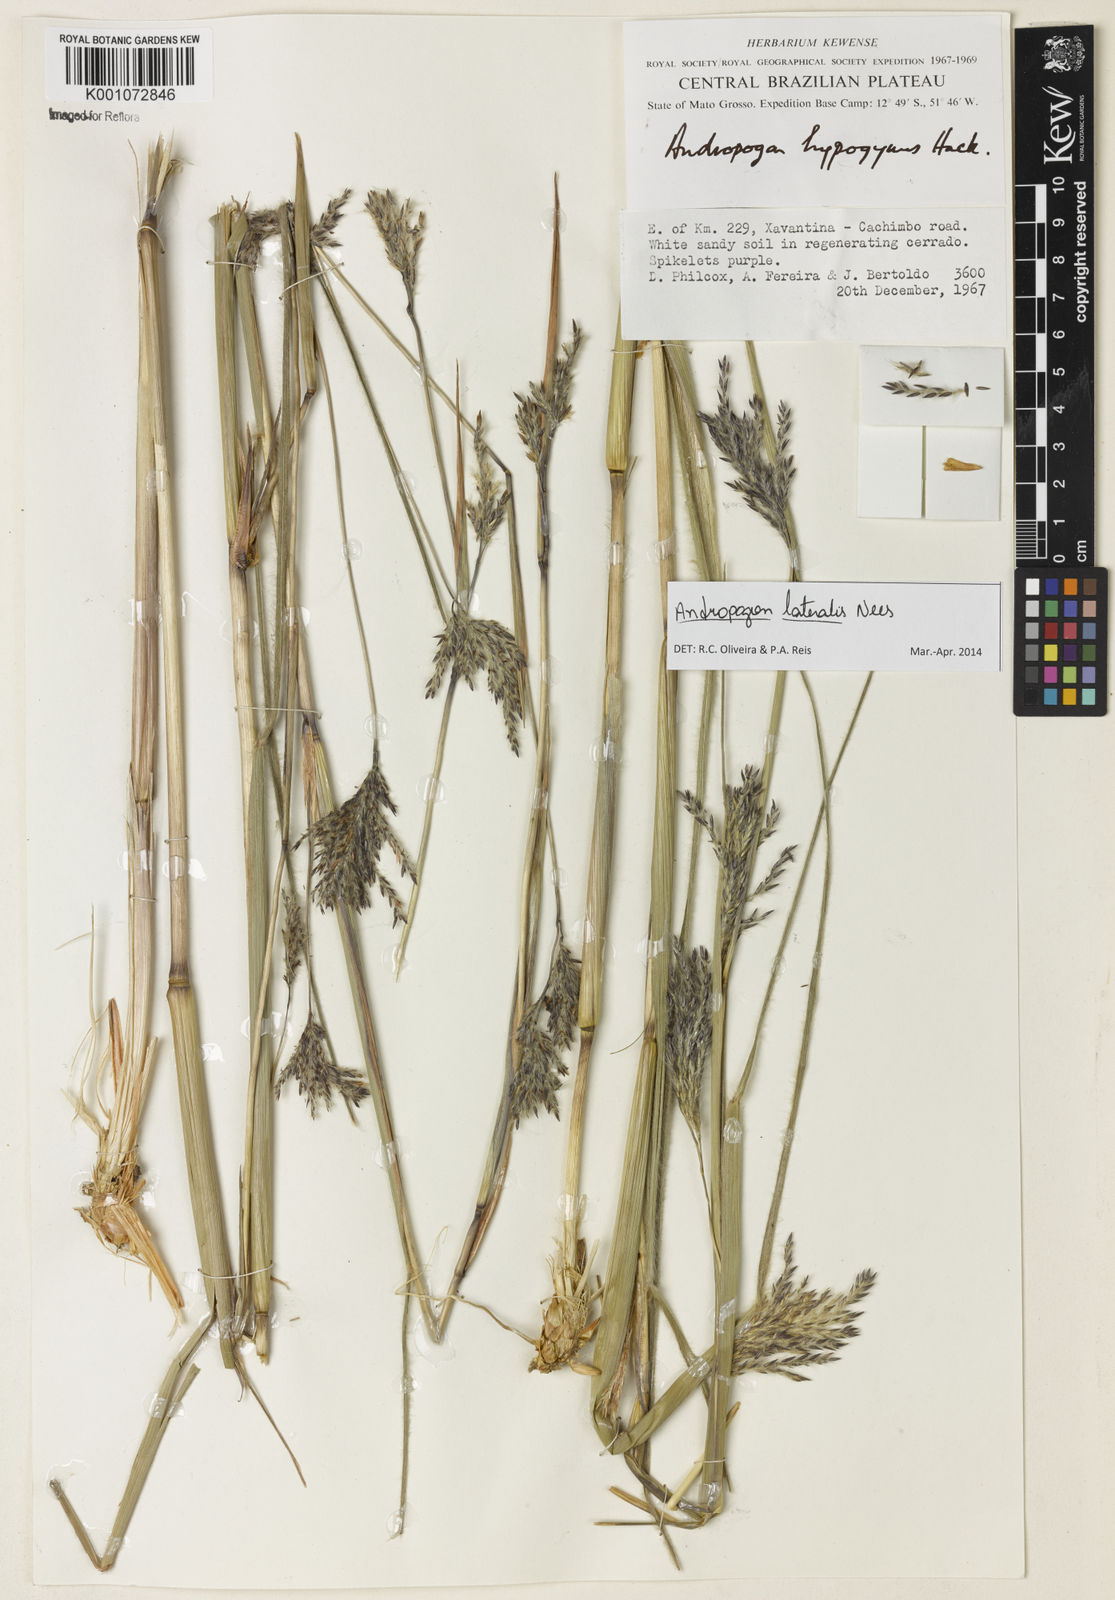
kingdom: Plantae
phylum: Tracheophyta
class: Liliopsida
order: Poales
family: Poaceae
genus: Andropogon
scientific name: Andropogon lateralis
